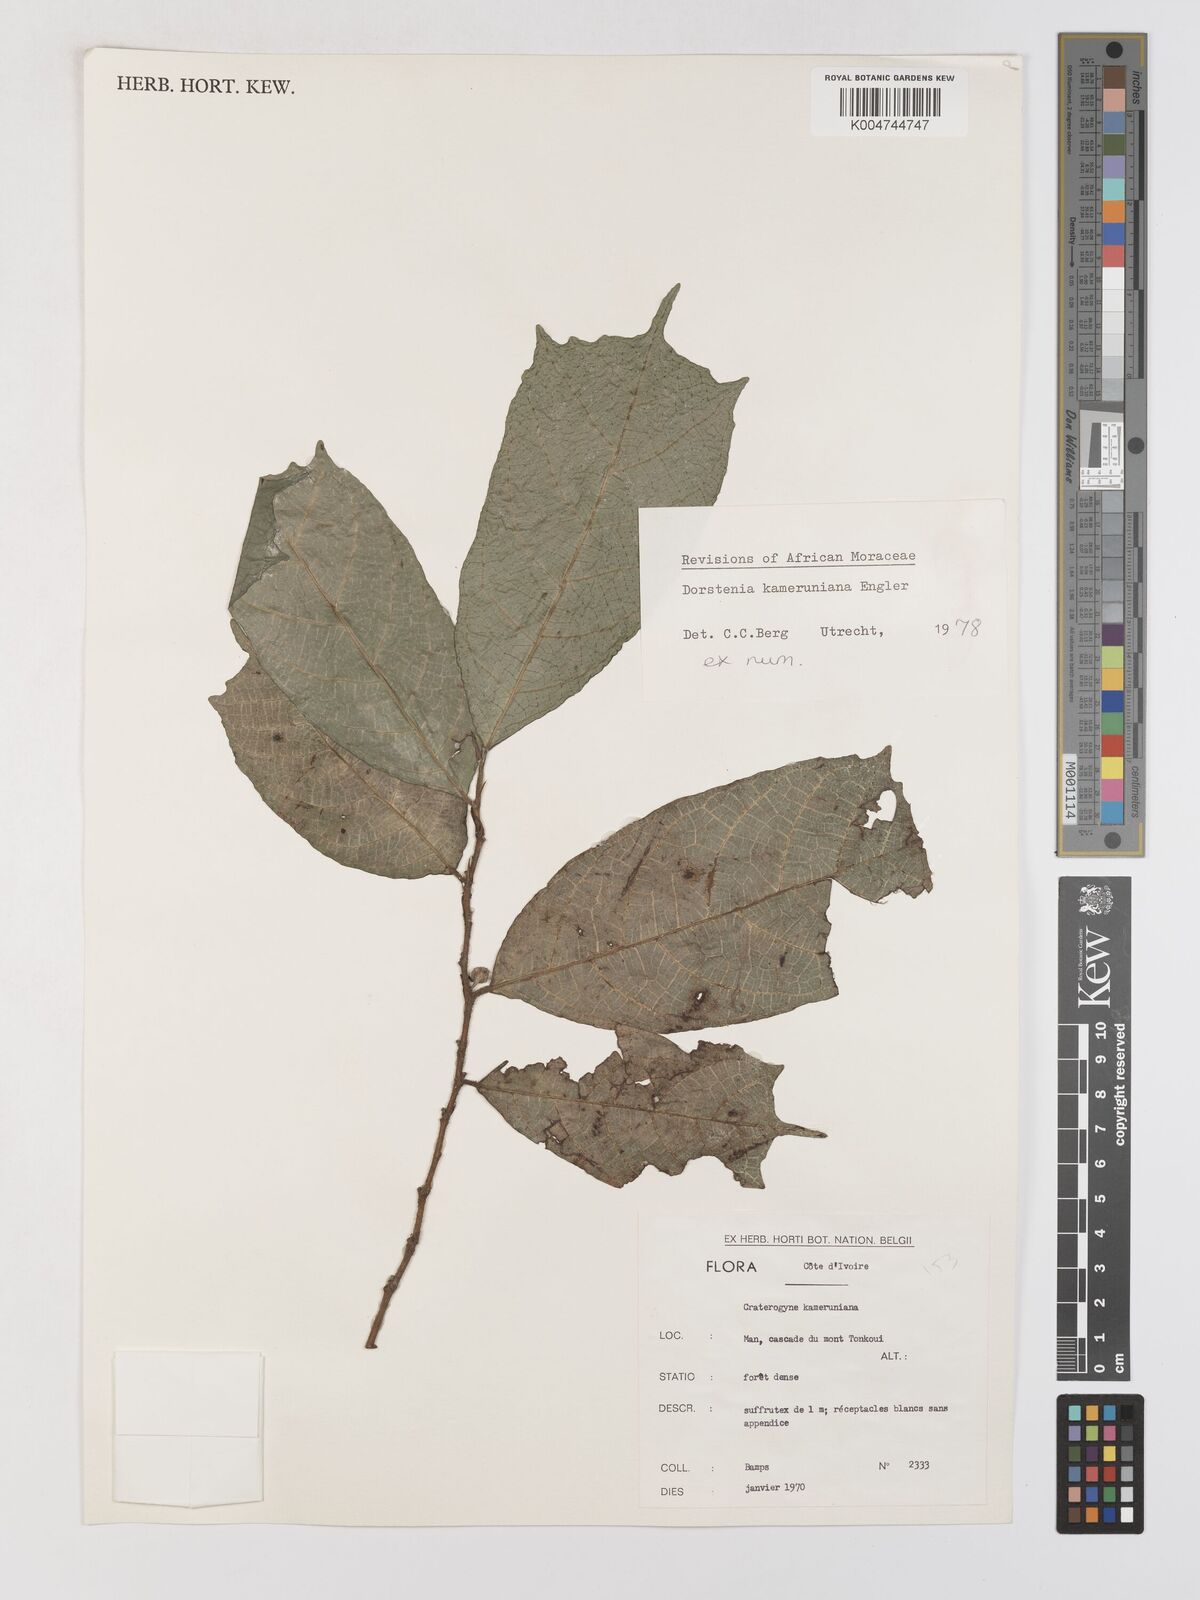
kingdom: Plantae
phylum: Tracheophyta
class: Magnoliopsida
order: Rosales
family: Moraceae
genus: Dorstenia
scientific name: Dorstenia kameruniana
